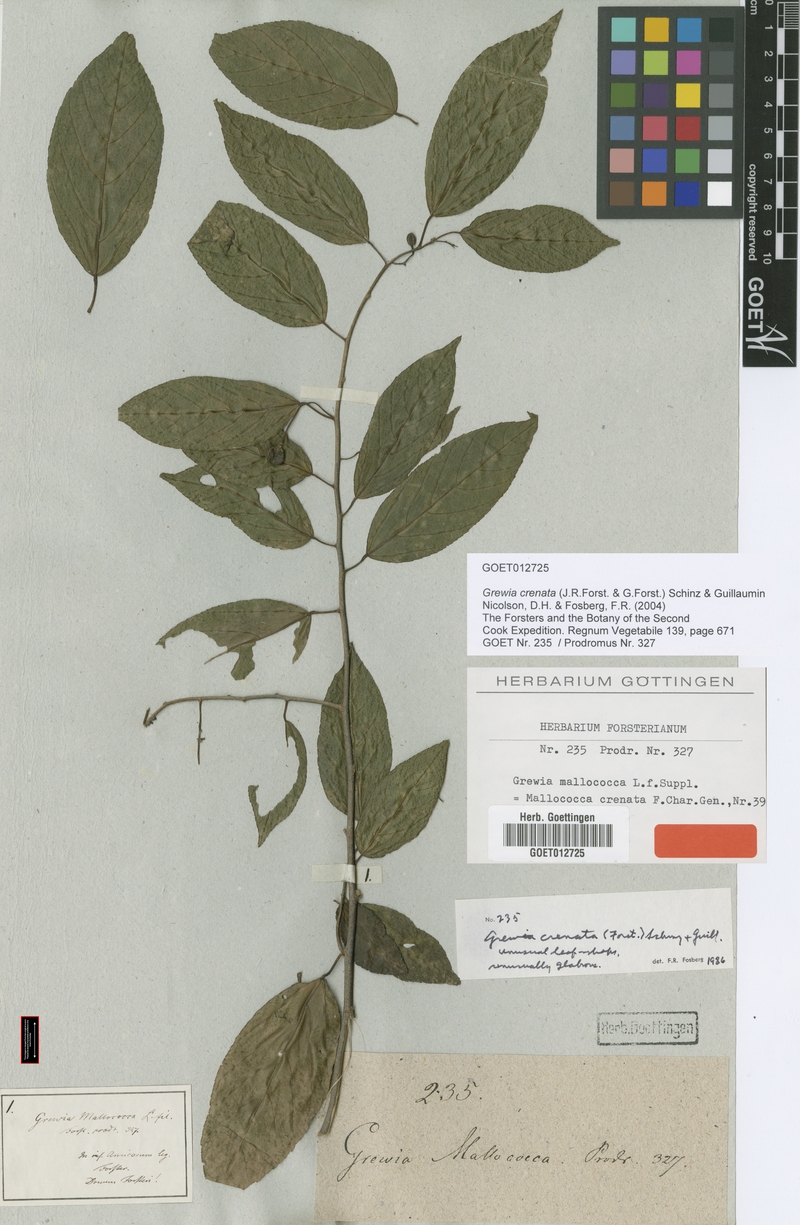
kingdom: Plantae
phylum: Tracheophyta
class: Magnoliopsida
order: Malvales
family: Malvaceae
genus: Grewia
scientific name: Grewia crenata
